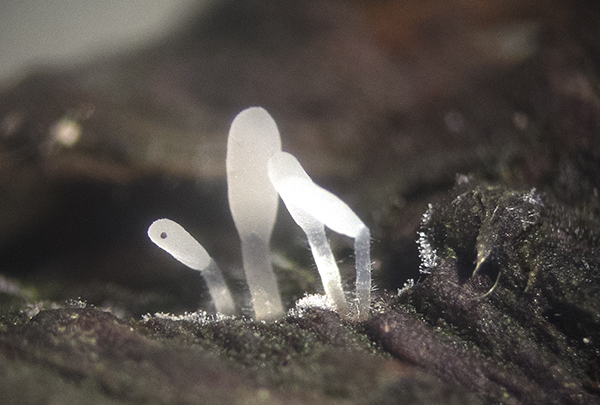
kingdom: Fungi
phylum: Basidiomycota
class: Agaricomycetes
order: Agaricales
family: Typhulaceae
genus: Typhula
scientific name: Typhula spathulata
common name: aske-trådkølle
